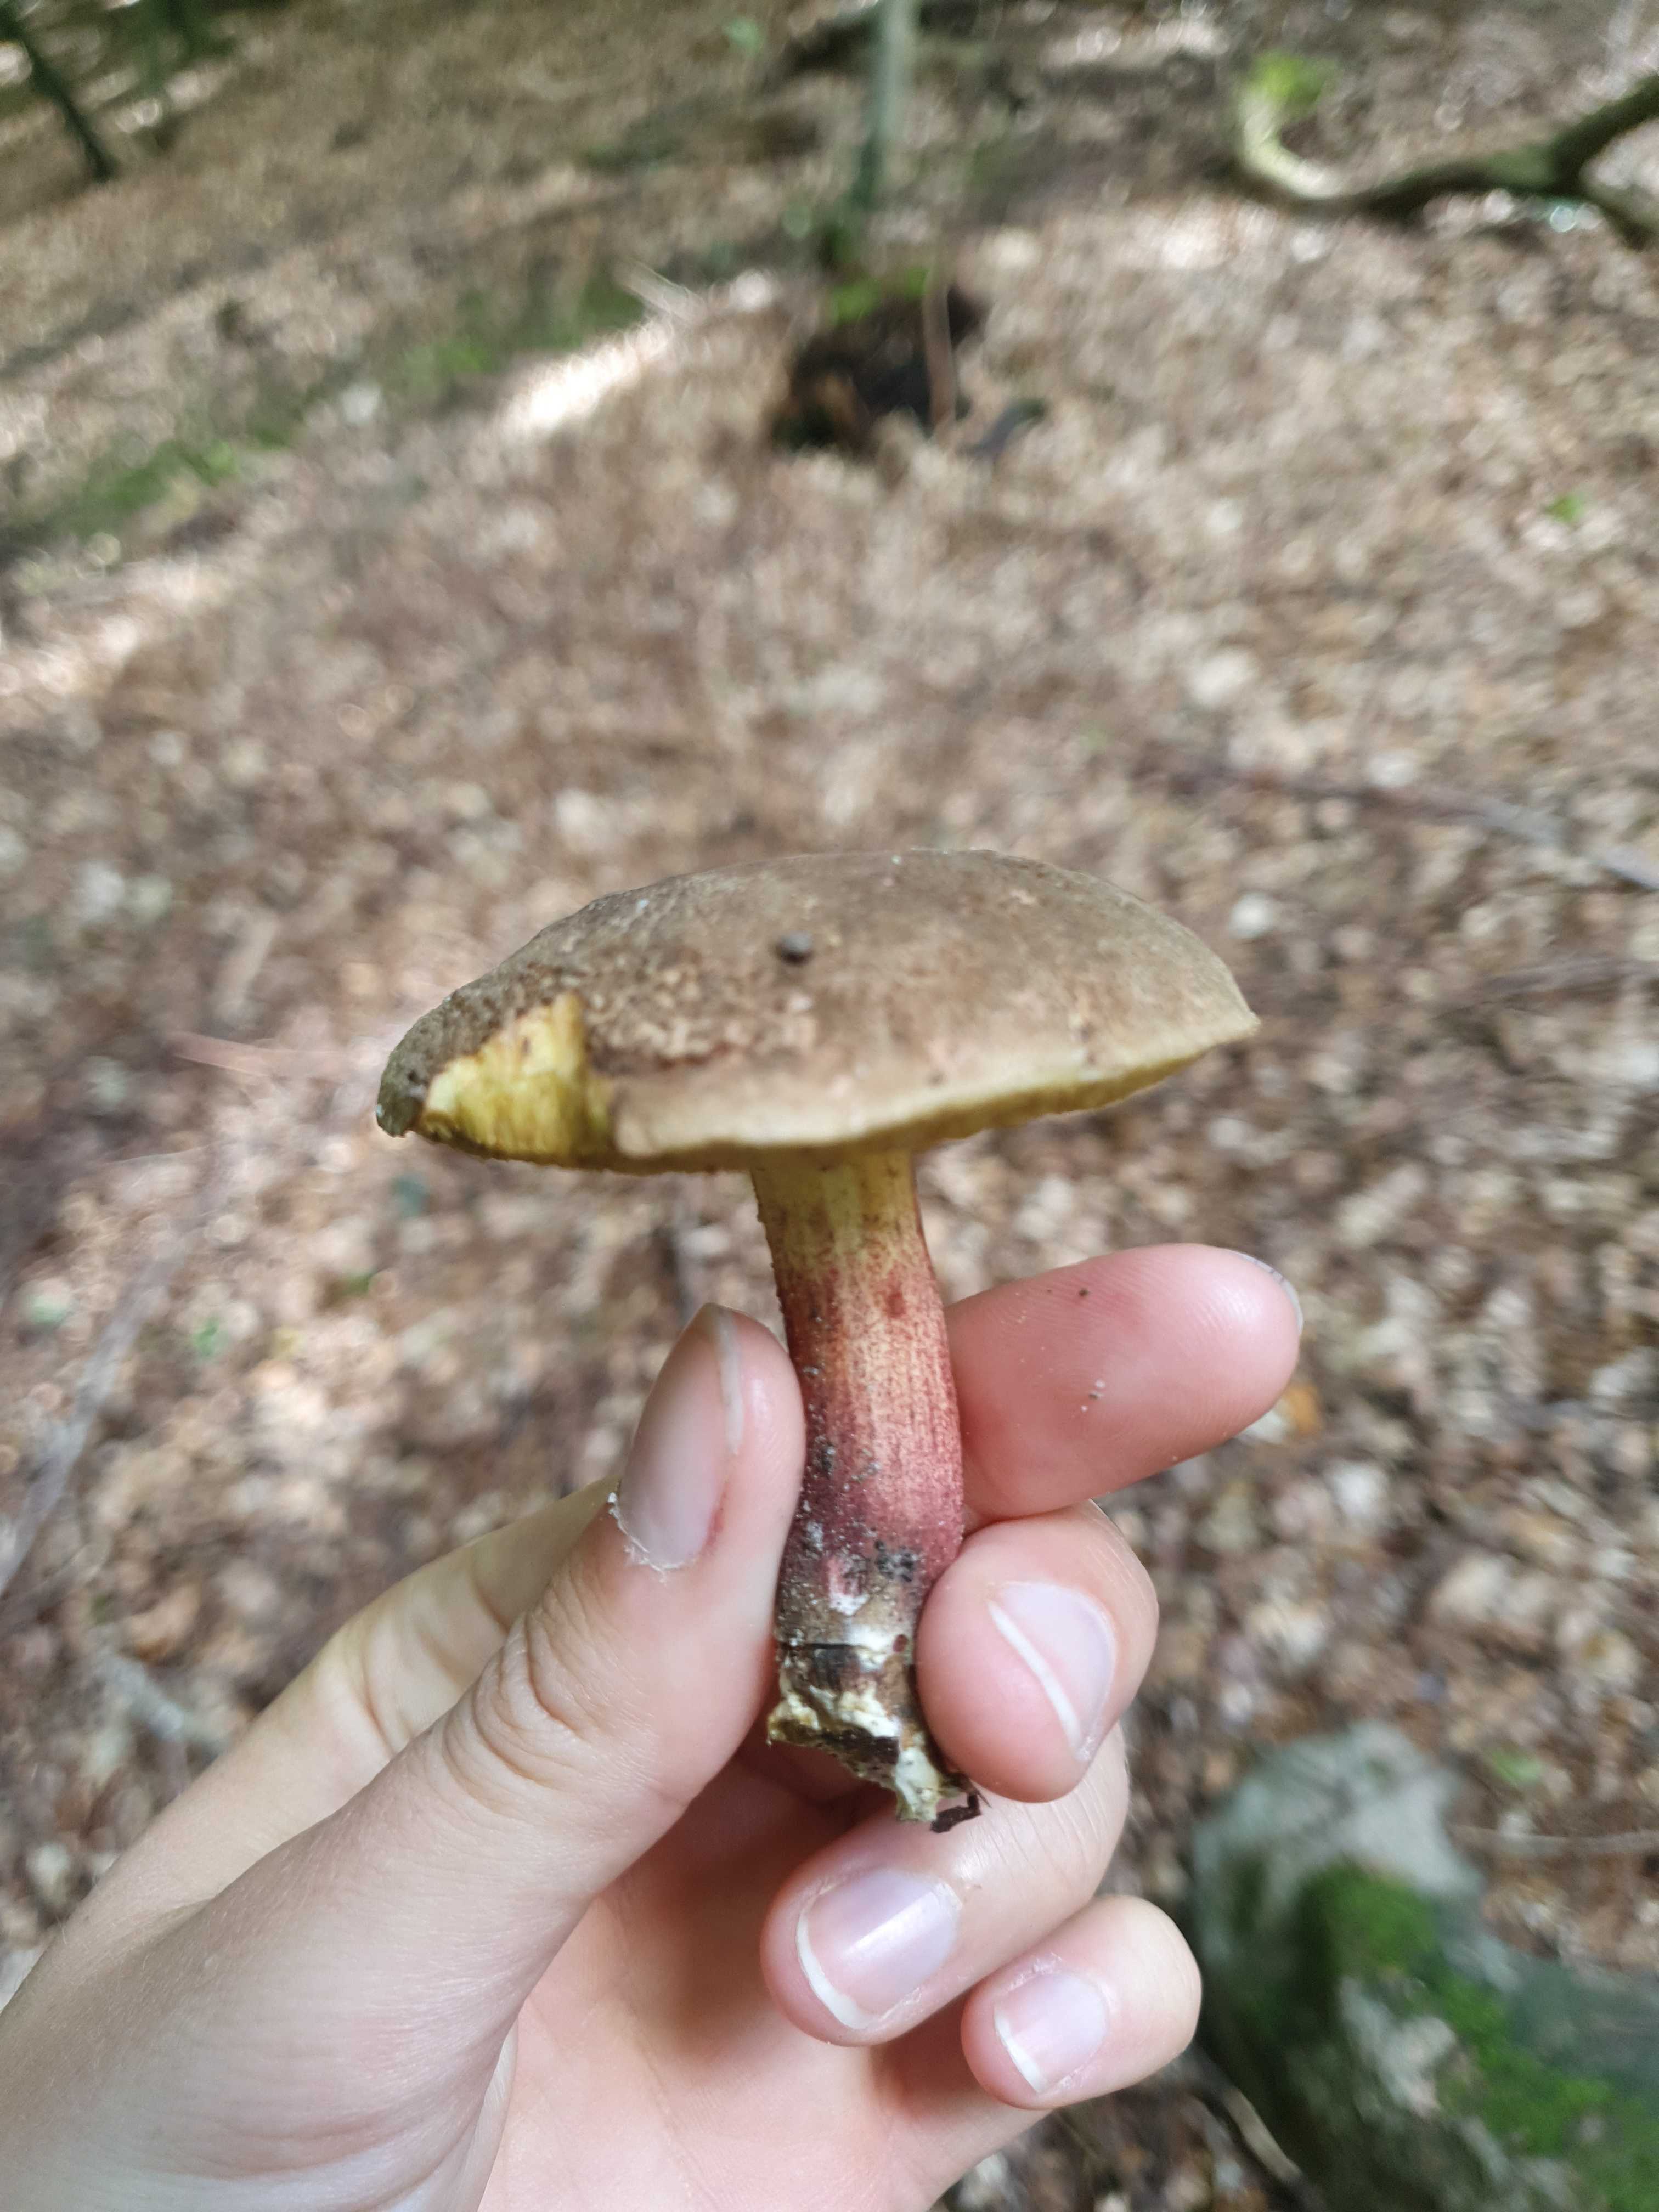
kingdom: Fungi
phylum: Basidiomycota
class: Agaricomycetes
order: Boletales
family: Boletaceae
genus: Xerocomellus
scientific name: Xerocomellus chrysenteron
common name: rødsprukken rørhat
